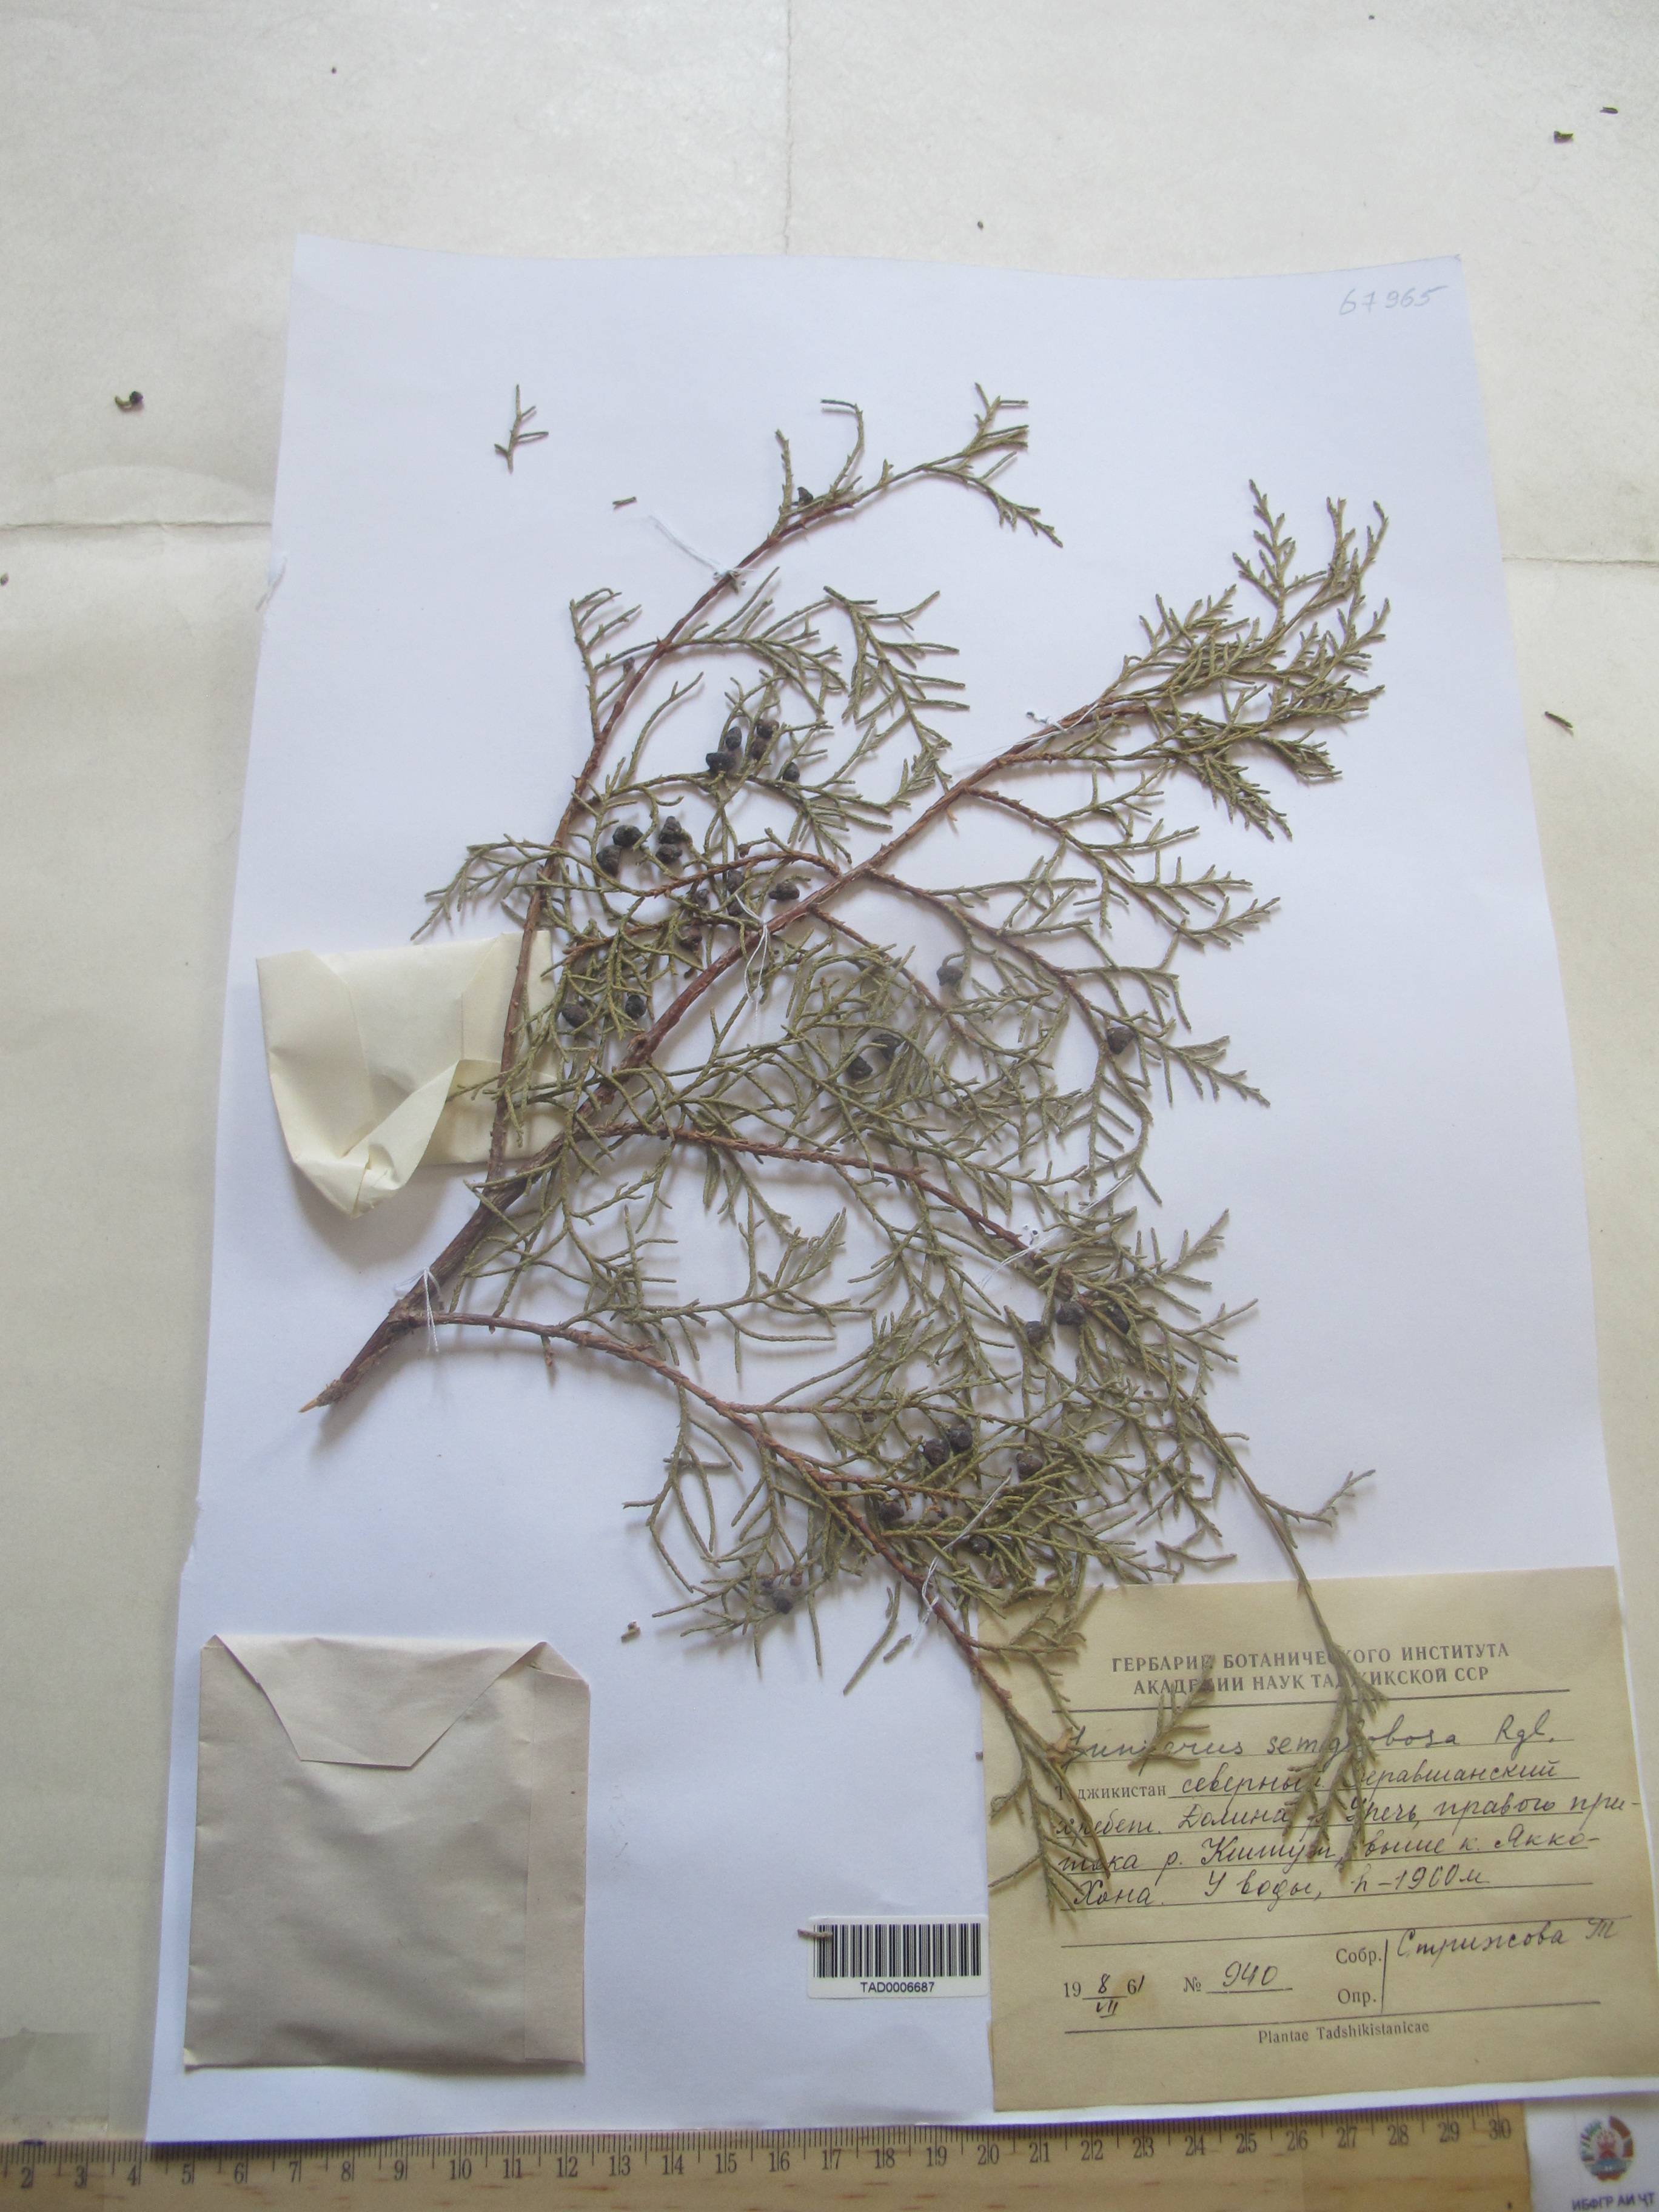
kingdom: Plantae
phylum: Tracheophyta
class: Pinopsida
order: Pinales
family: Cupressaceae
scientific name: Cupressaceae
